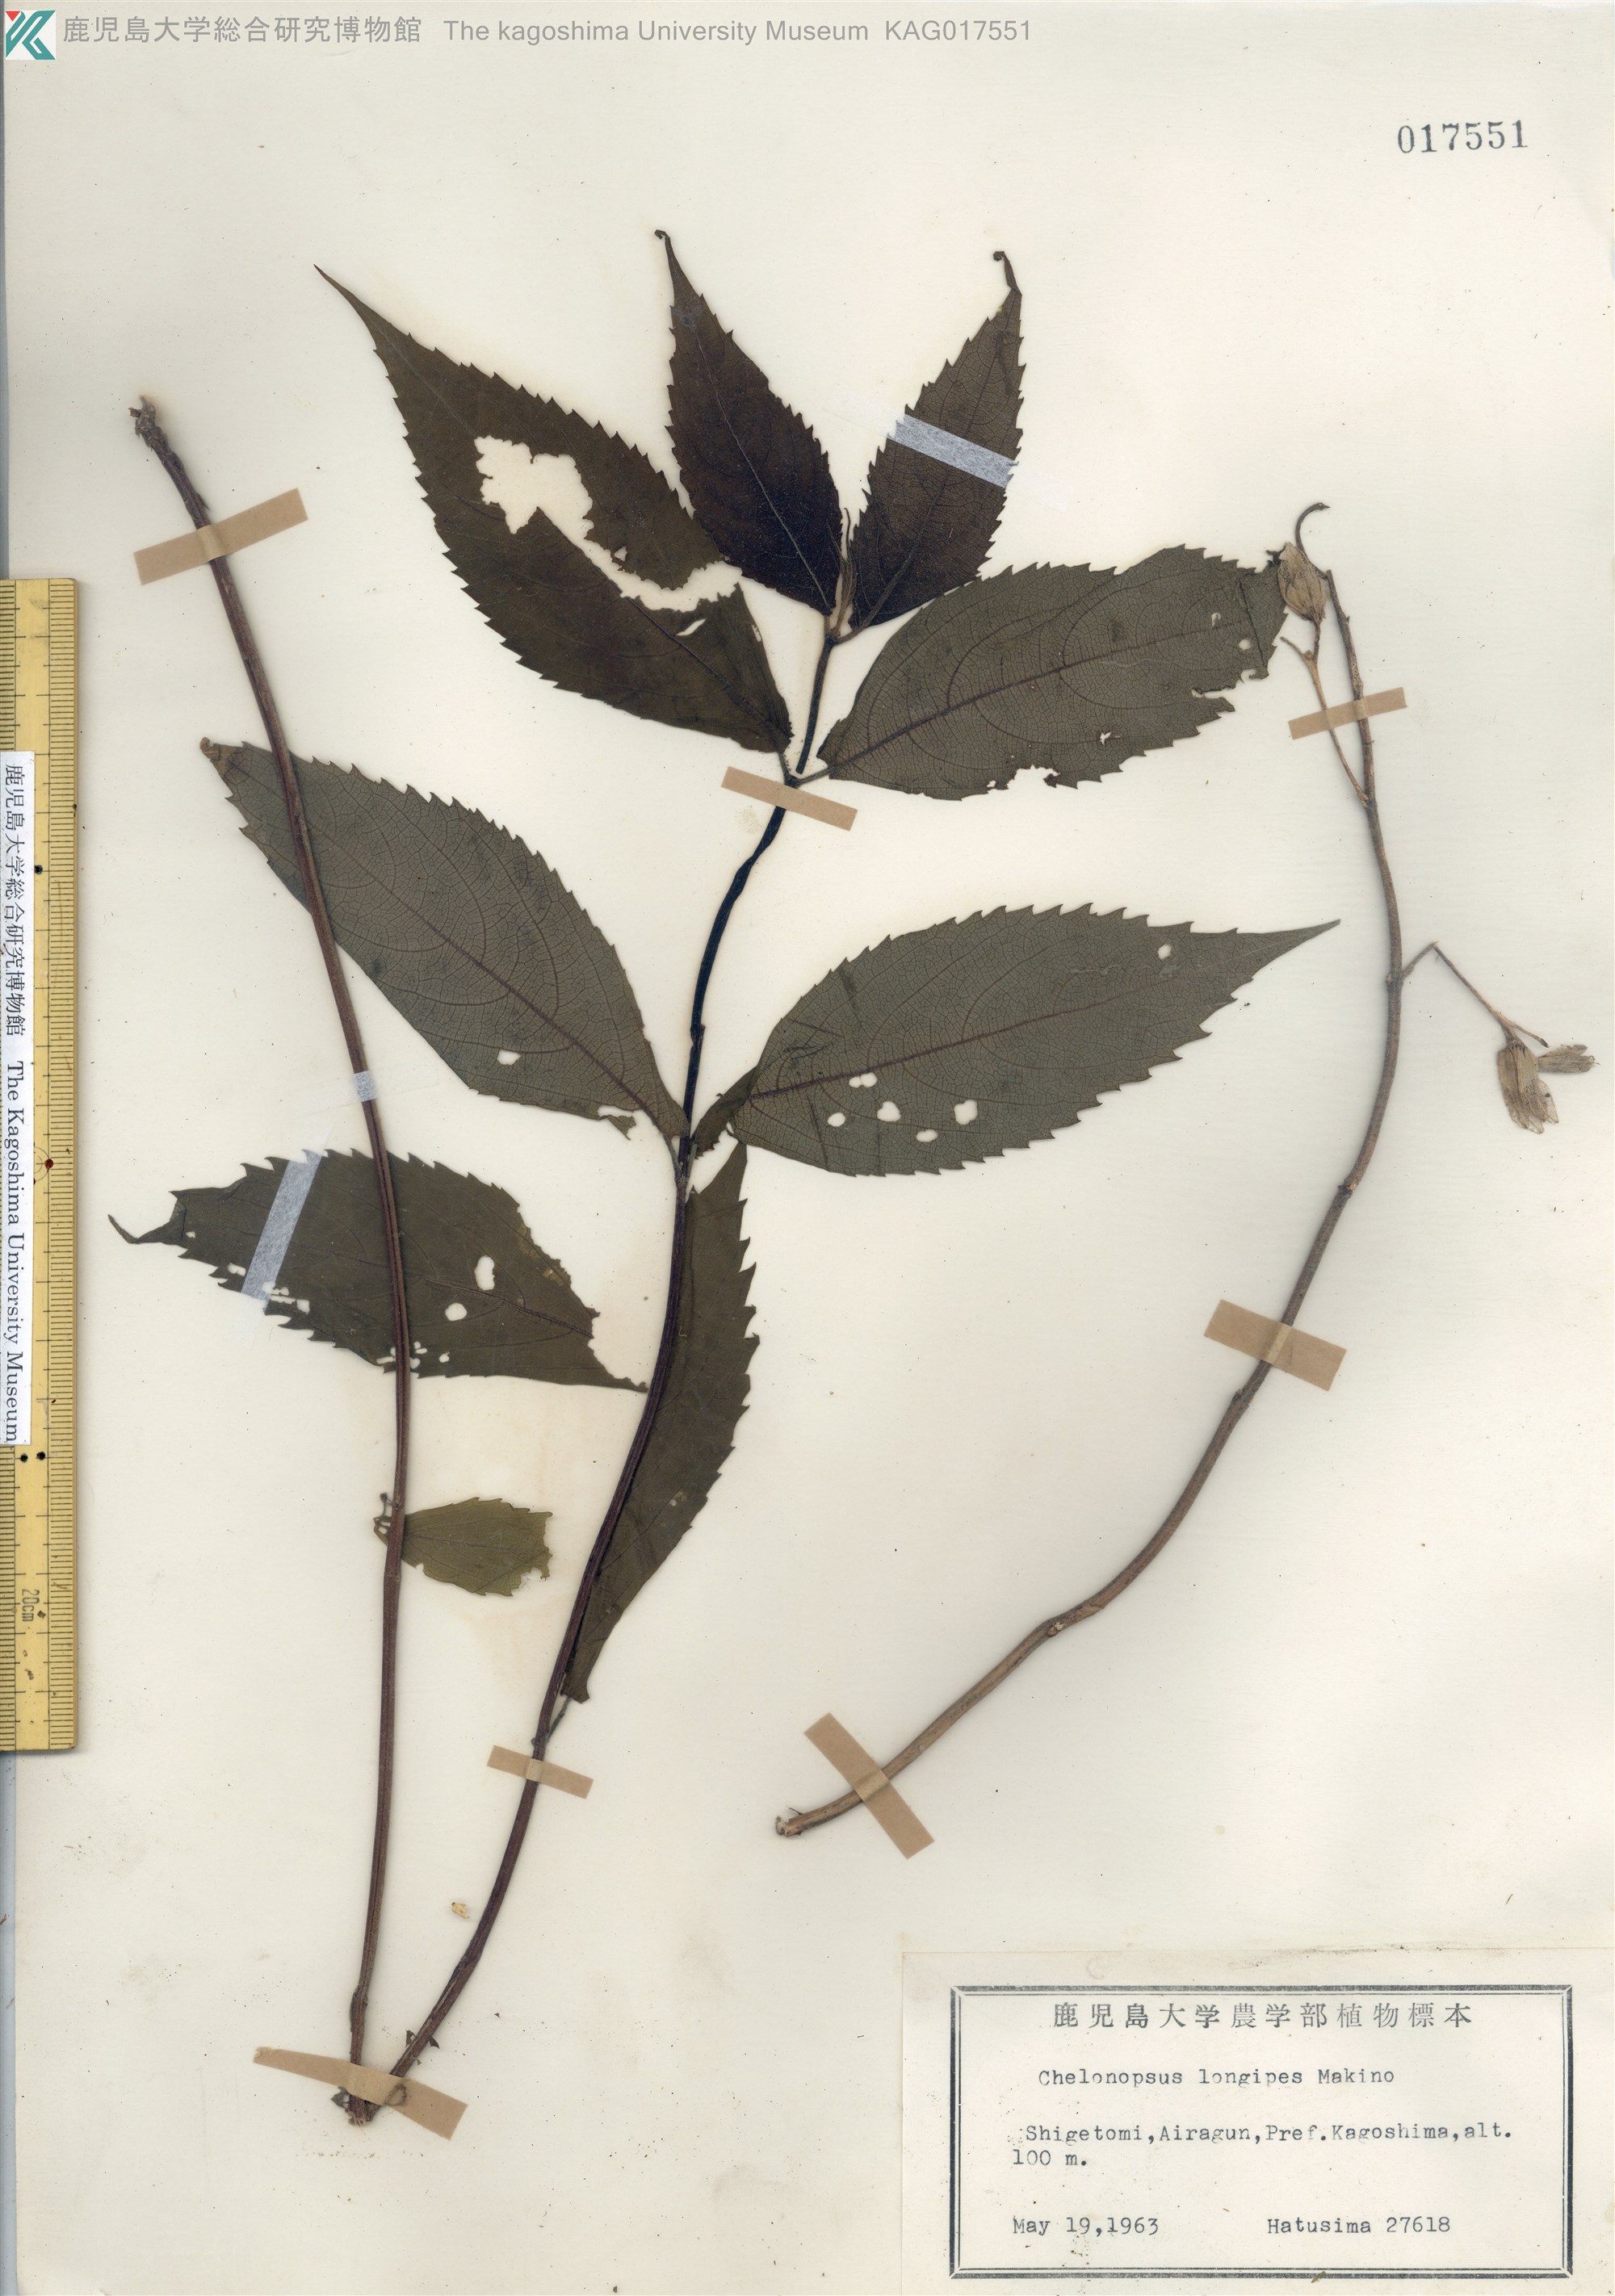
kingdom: Plantae
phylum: Tracheophyta
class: Magnoliopsida
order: Lamiales
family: Lamiaceae
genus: Chelonopsis
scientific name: Chelonopsis longipes
